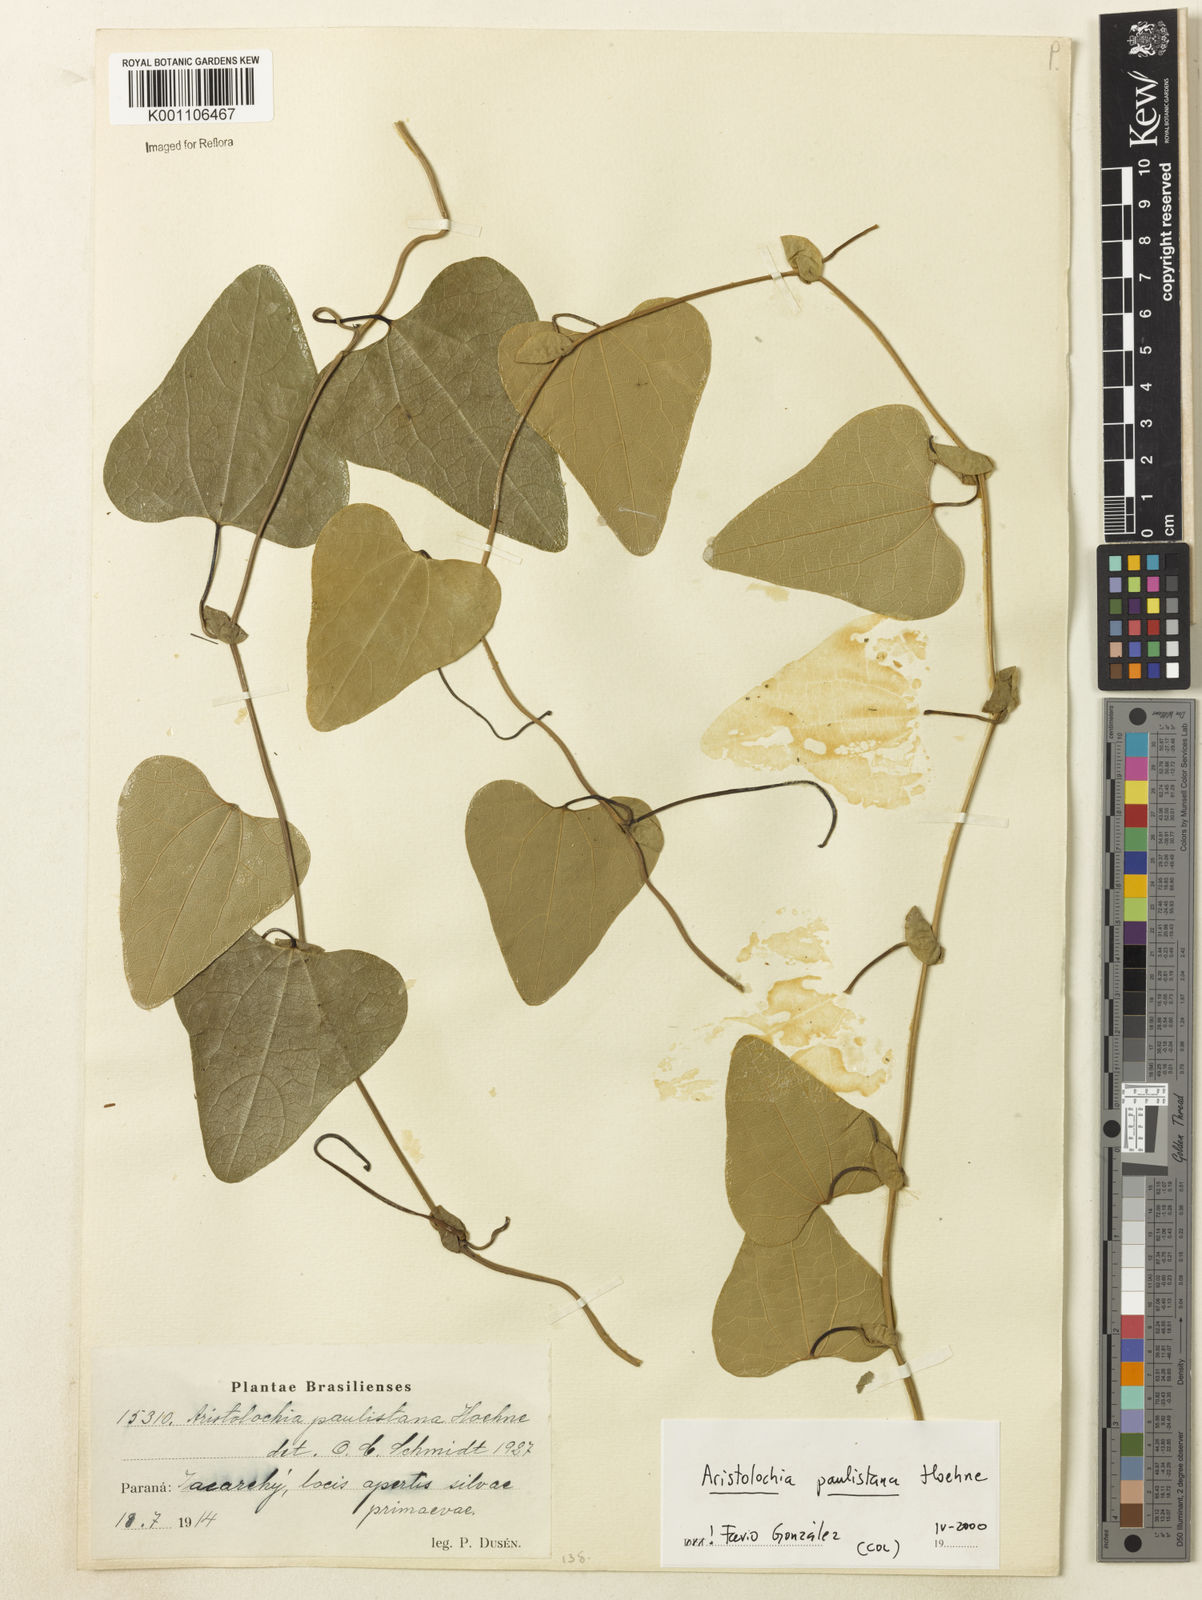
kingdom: Plantae
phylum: Tracheophyta
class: Magnoliopsida
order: Piperales
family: Aristolochiaceae
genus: Aristolochia
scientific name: Aristolochia paulistana
